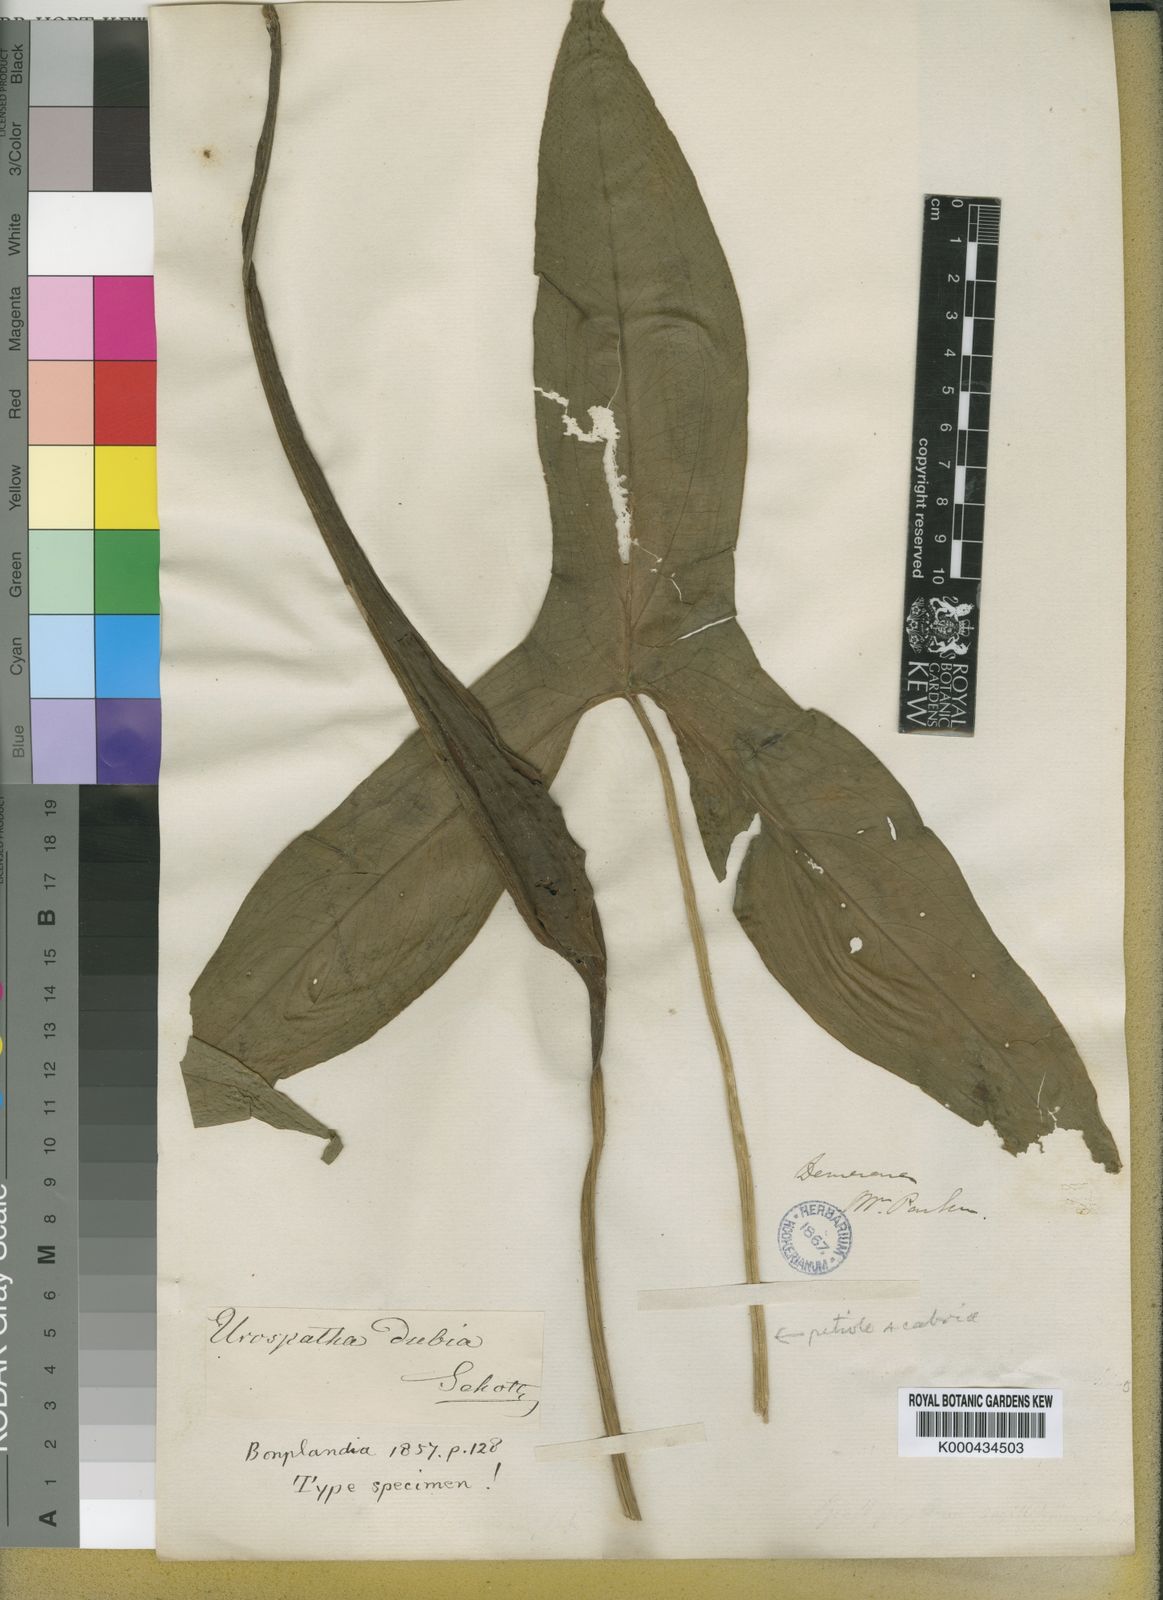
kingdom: Plantae
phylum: Tracheophyta
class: Liliopsida
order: Alismatales
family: Araceae
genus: Urospatha
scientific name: Urospatha sagittifolia
